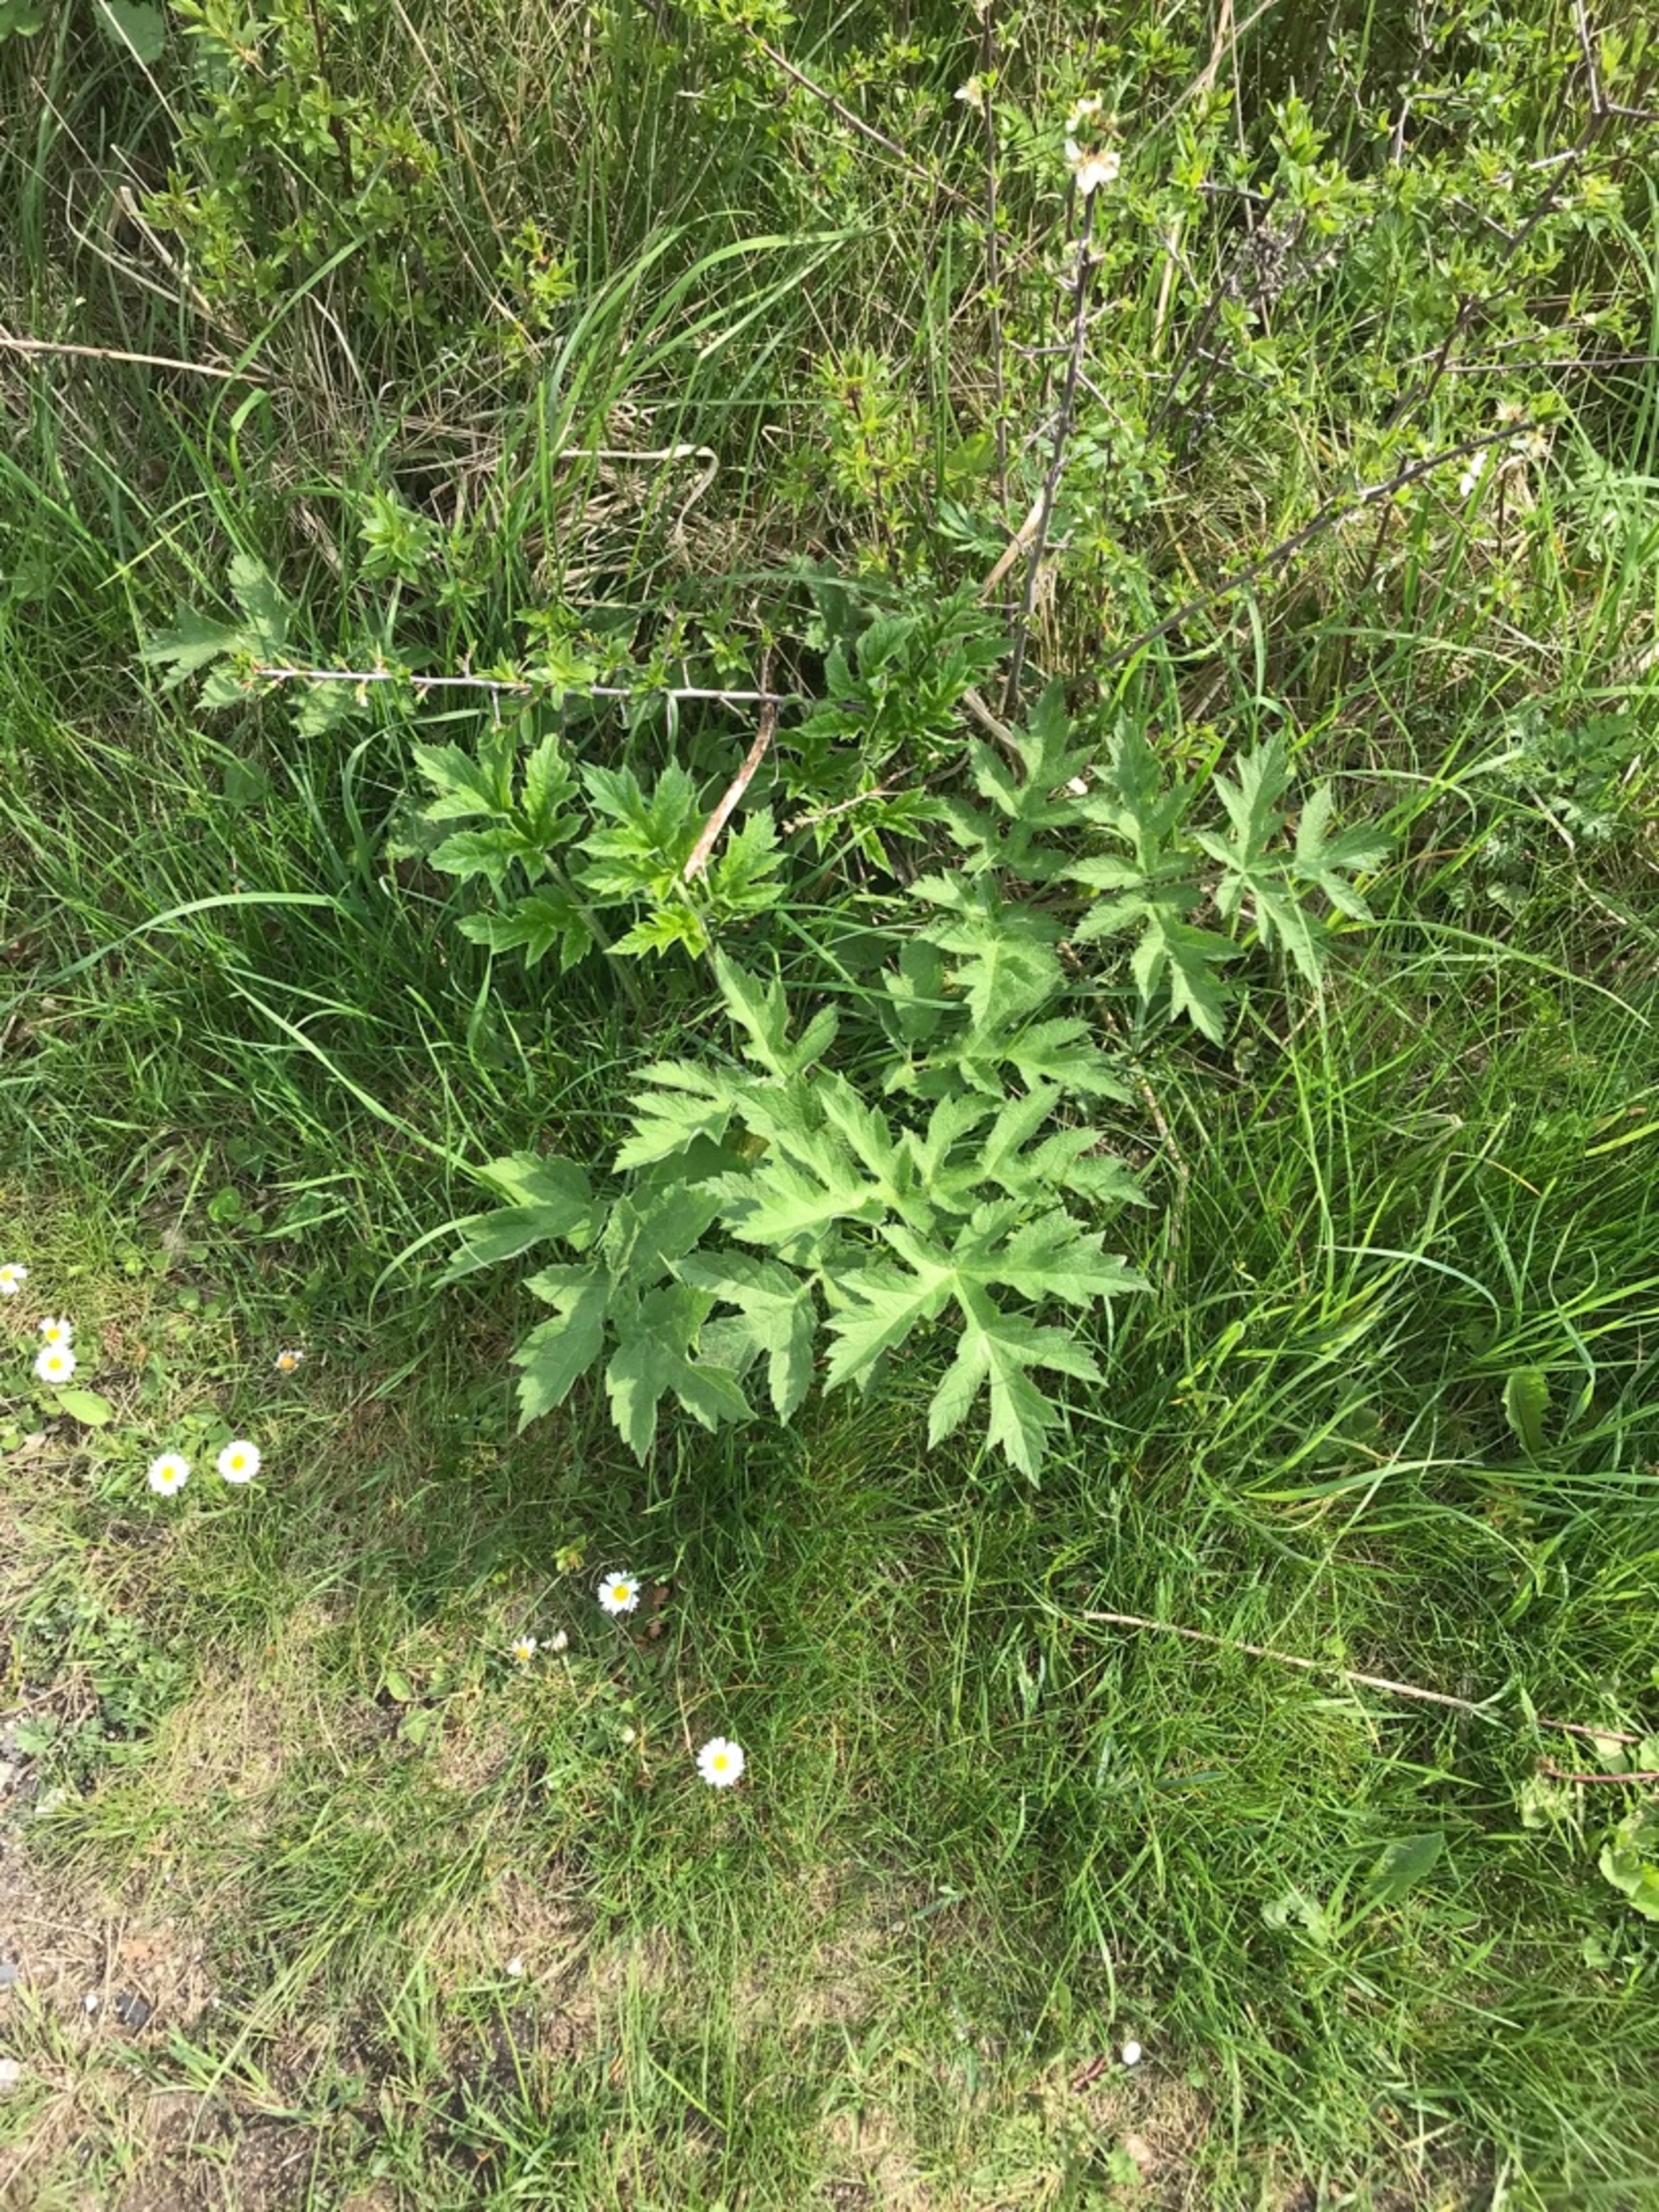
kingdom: Plantae
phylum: Tracheophyta
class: Magnoliopsida
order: Apiales
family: Apiaceae
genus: Heracleum
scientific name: Heracleum sphondylium
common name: Almindelig bjørneklo
